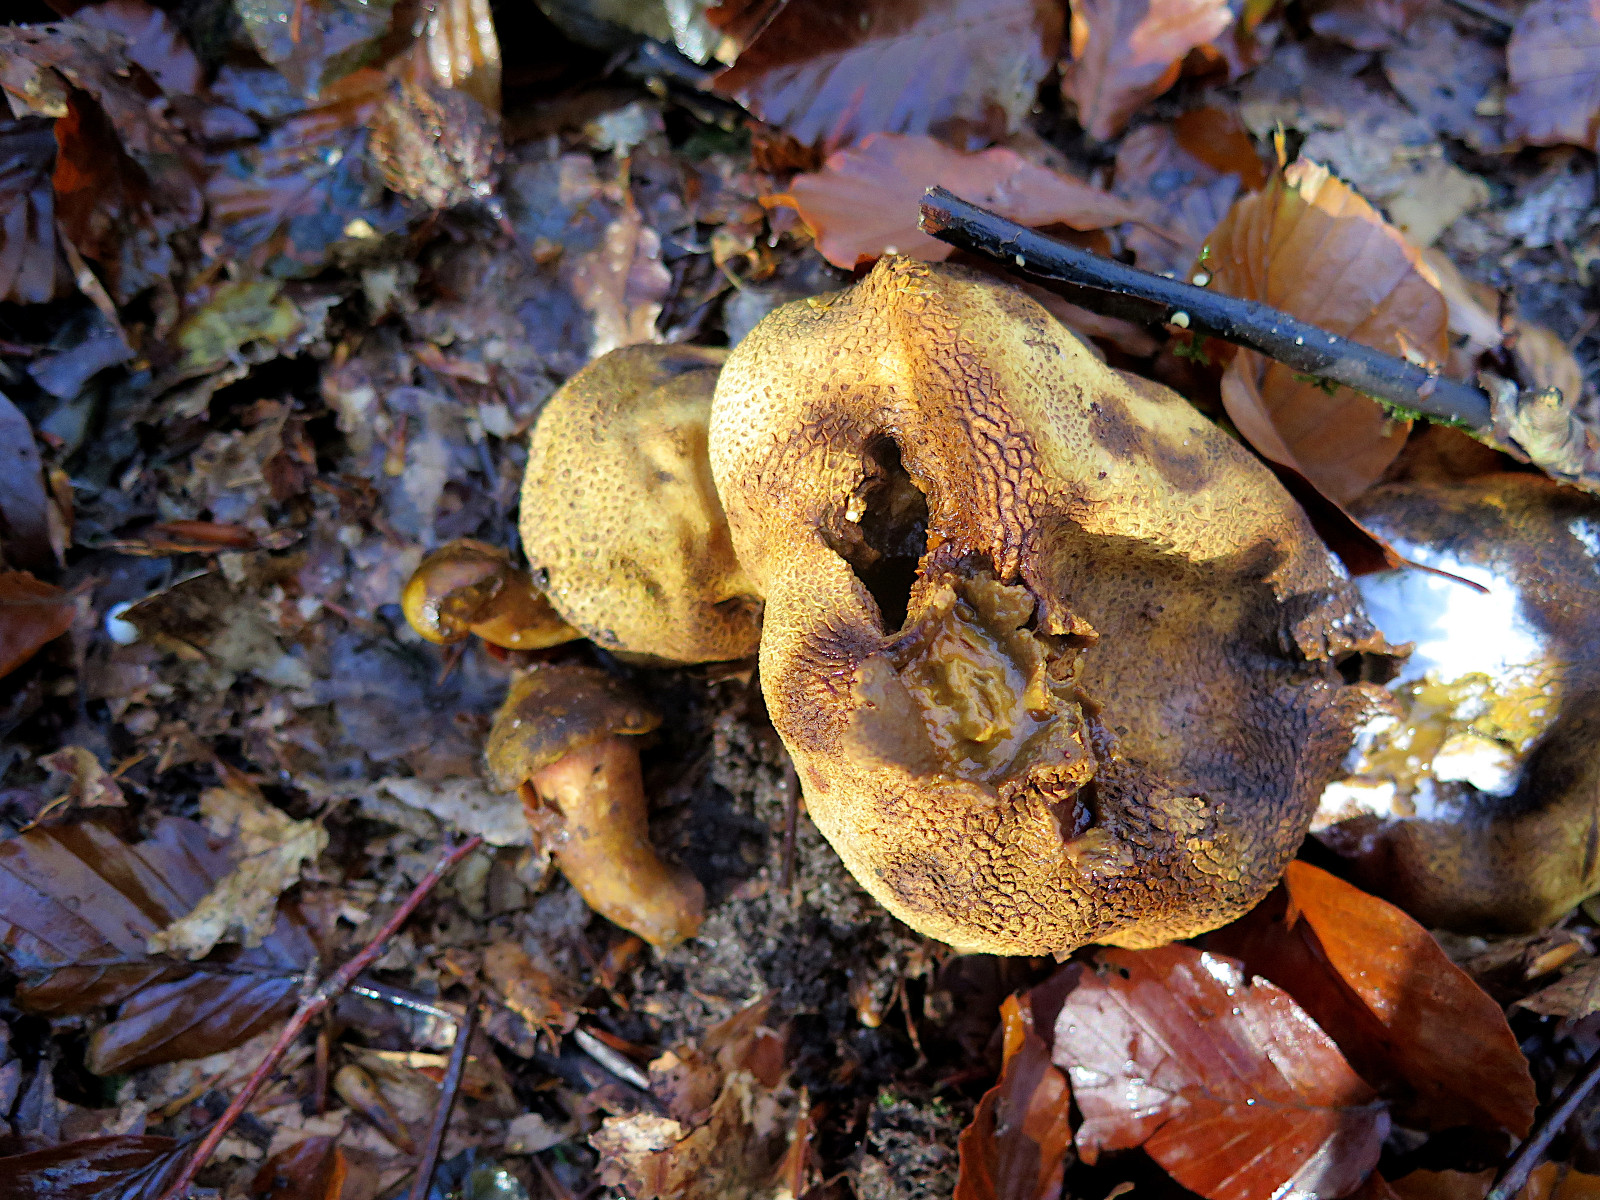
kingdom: Fungi
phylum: Basidiomycota
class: Agaricomycetes
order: Boletales
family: Sclerodermataceae
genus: Scleroderma
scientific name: Scleroderma citrinum
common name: almindelig bruskbold
